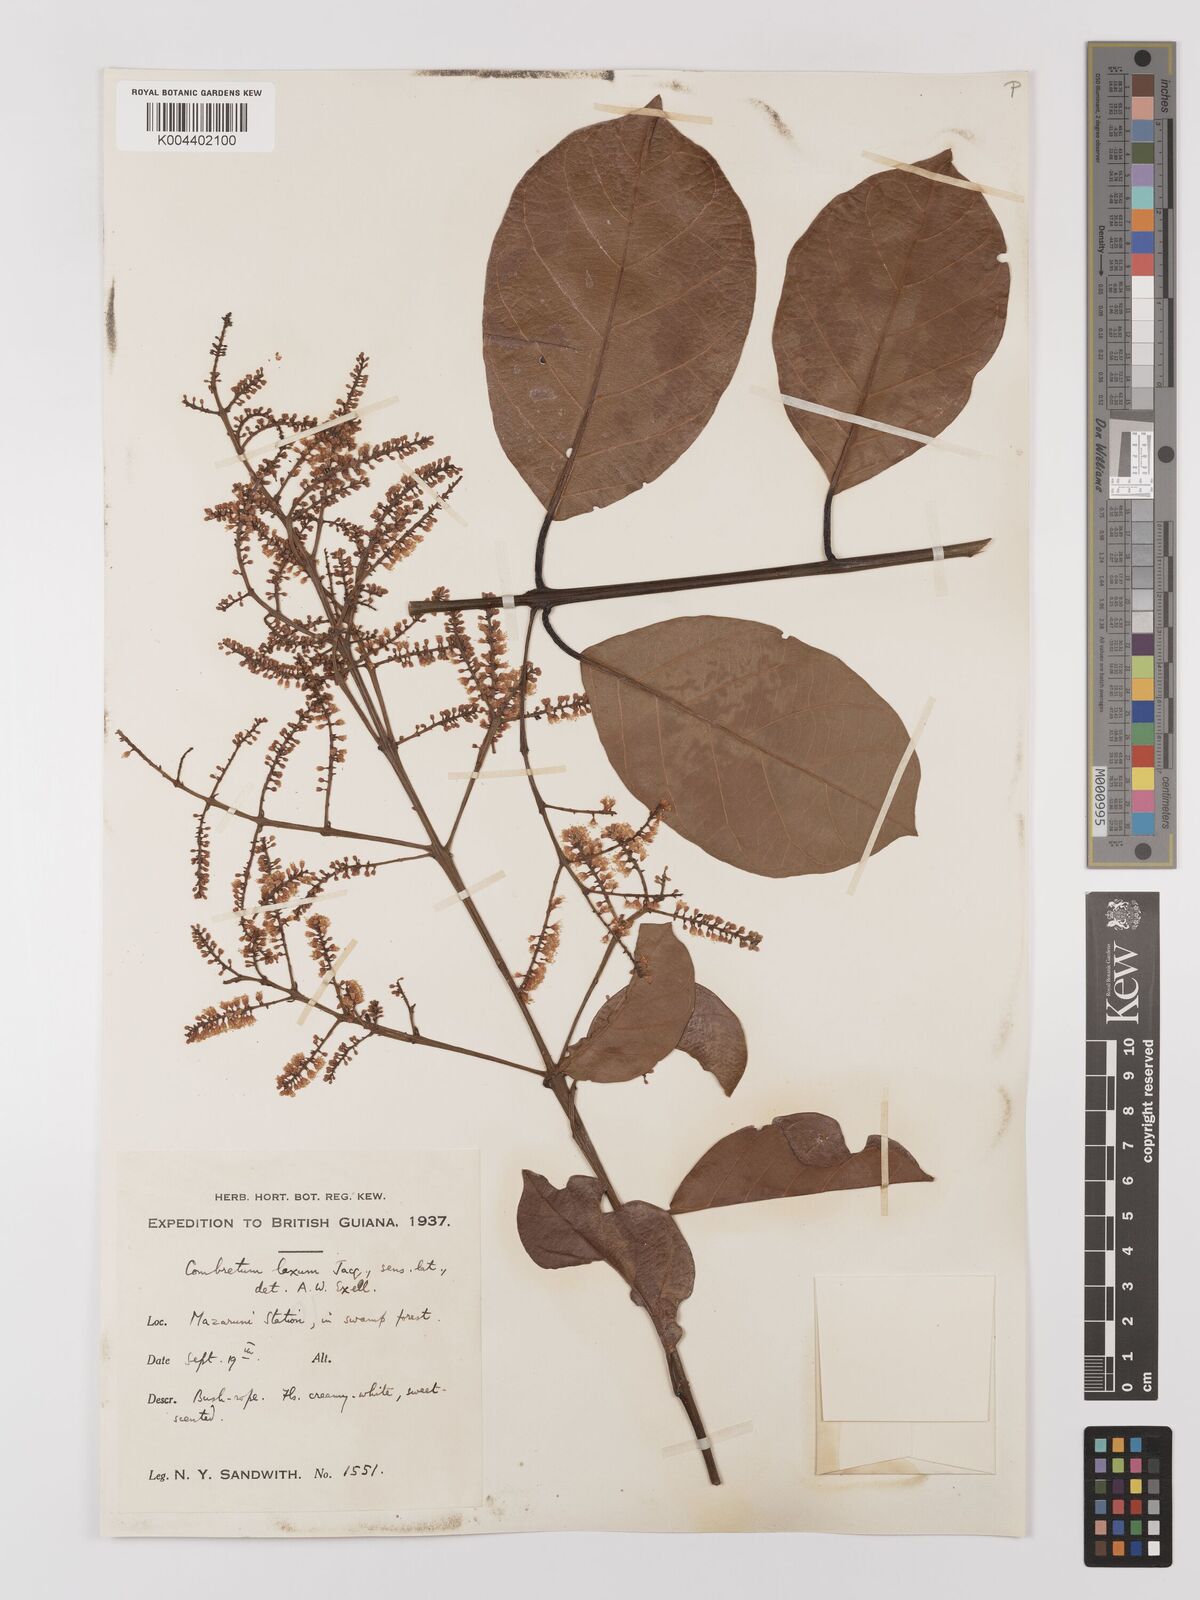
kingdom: Plantae
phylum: Tracheophyta
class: Magnoliopsida
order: Myrtales
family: Combretaceae
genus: Combretum
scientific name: Combretum
